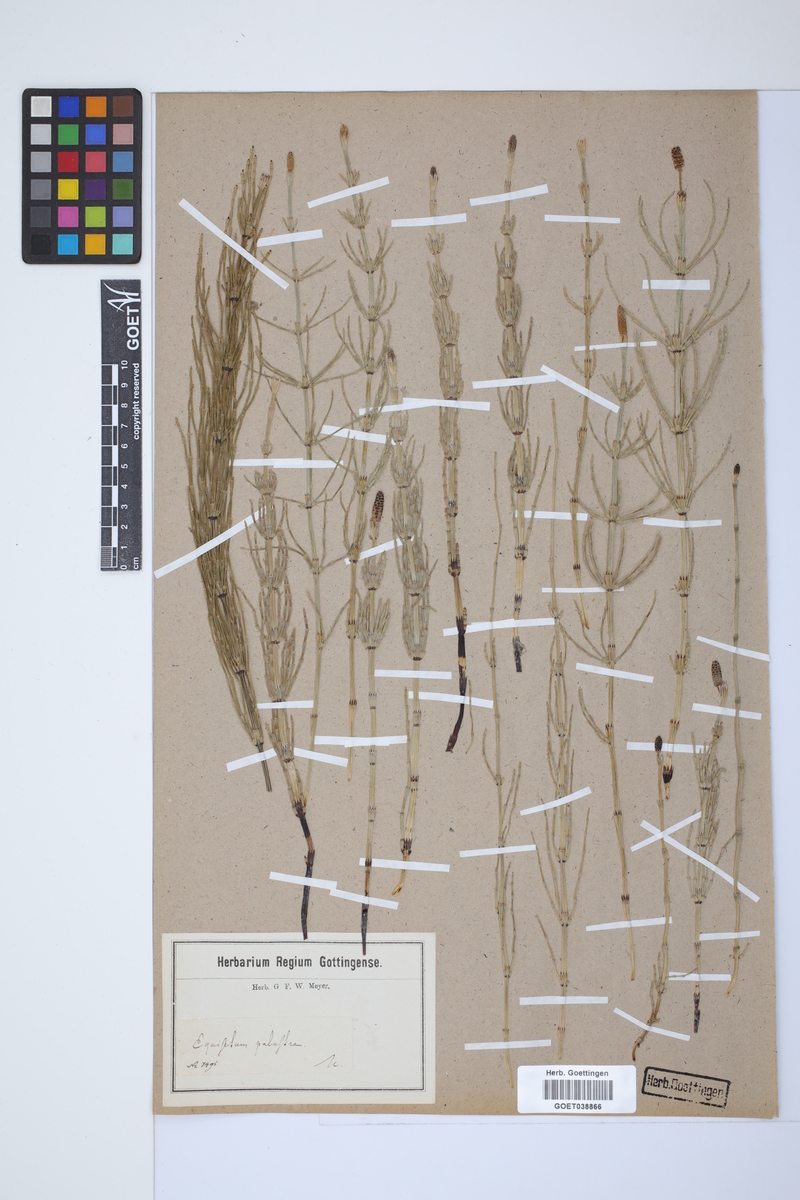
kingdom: Plantae
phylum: Tracheophyta
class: Polypodiopsida
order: Equisetales
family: Equisetaceae
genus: Equisetum
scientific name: Equisetum palustre
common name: Marsh horsetail
